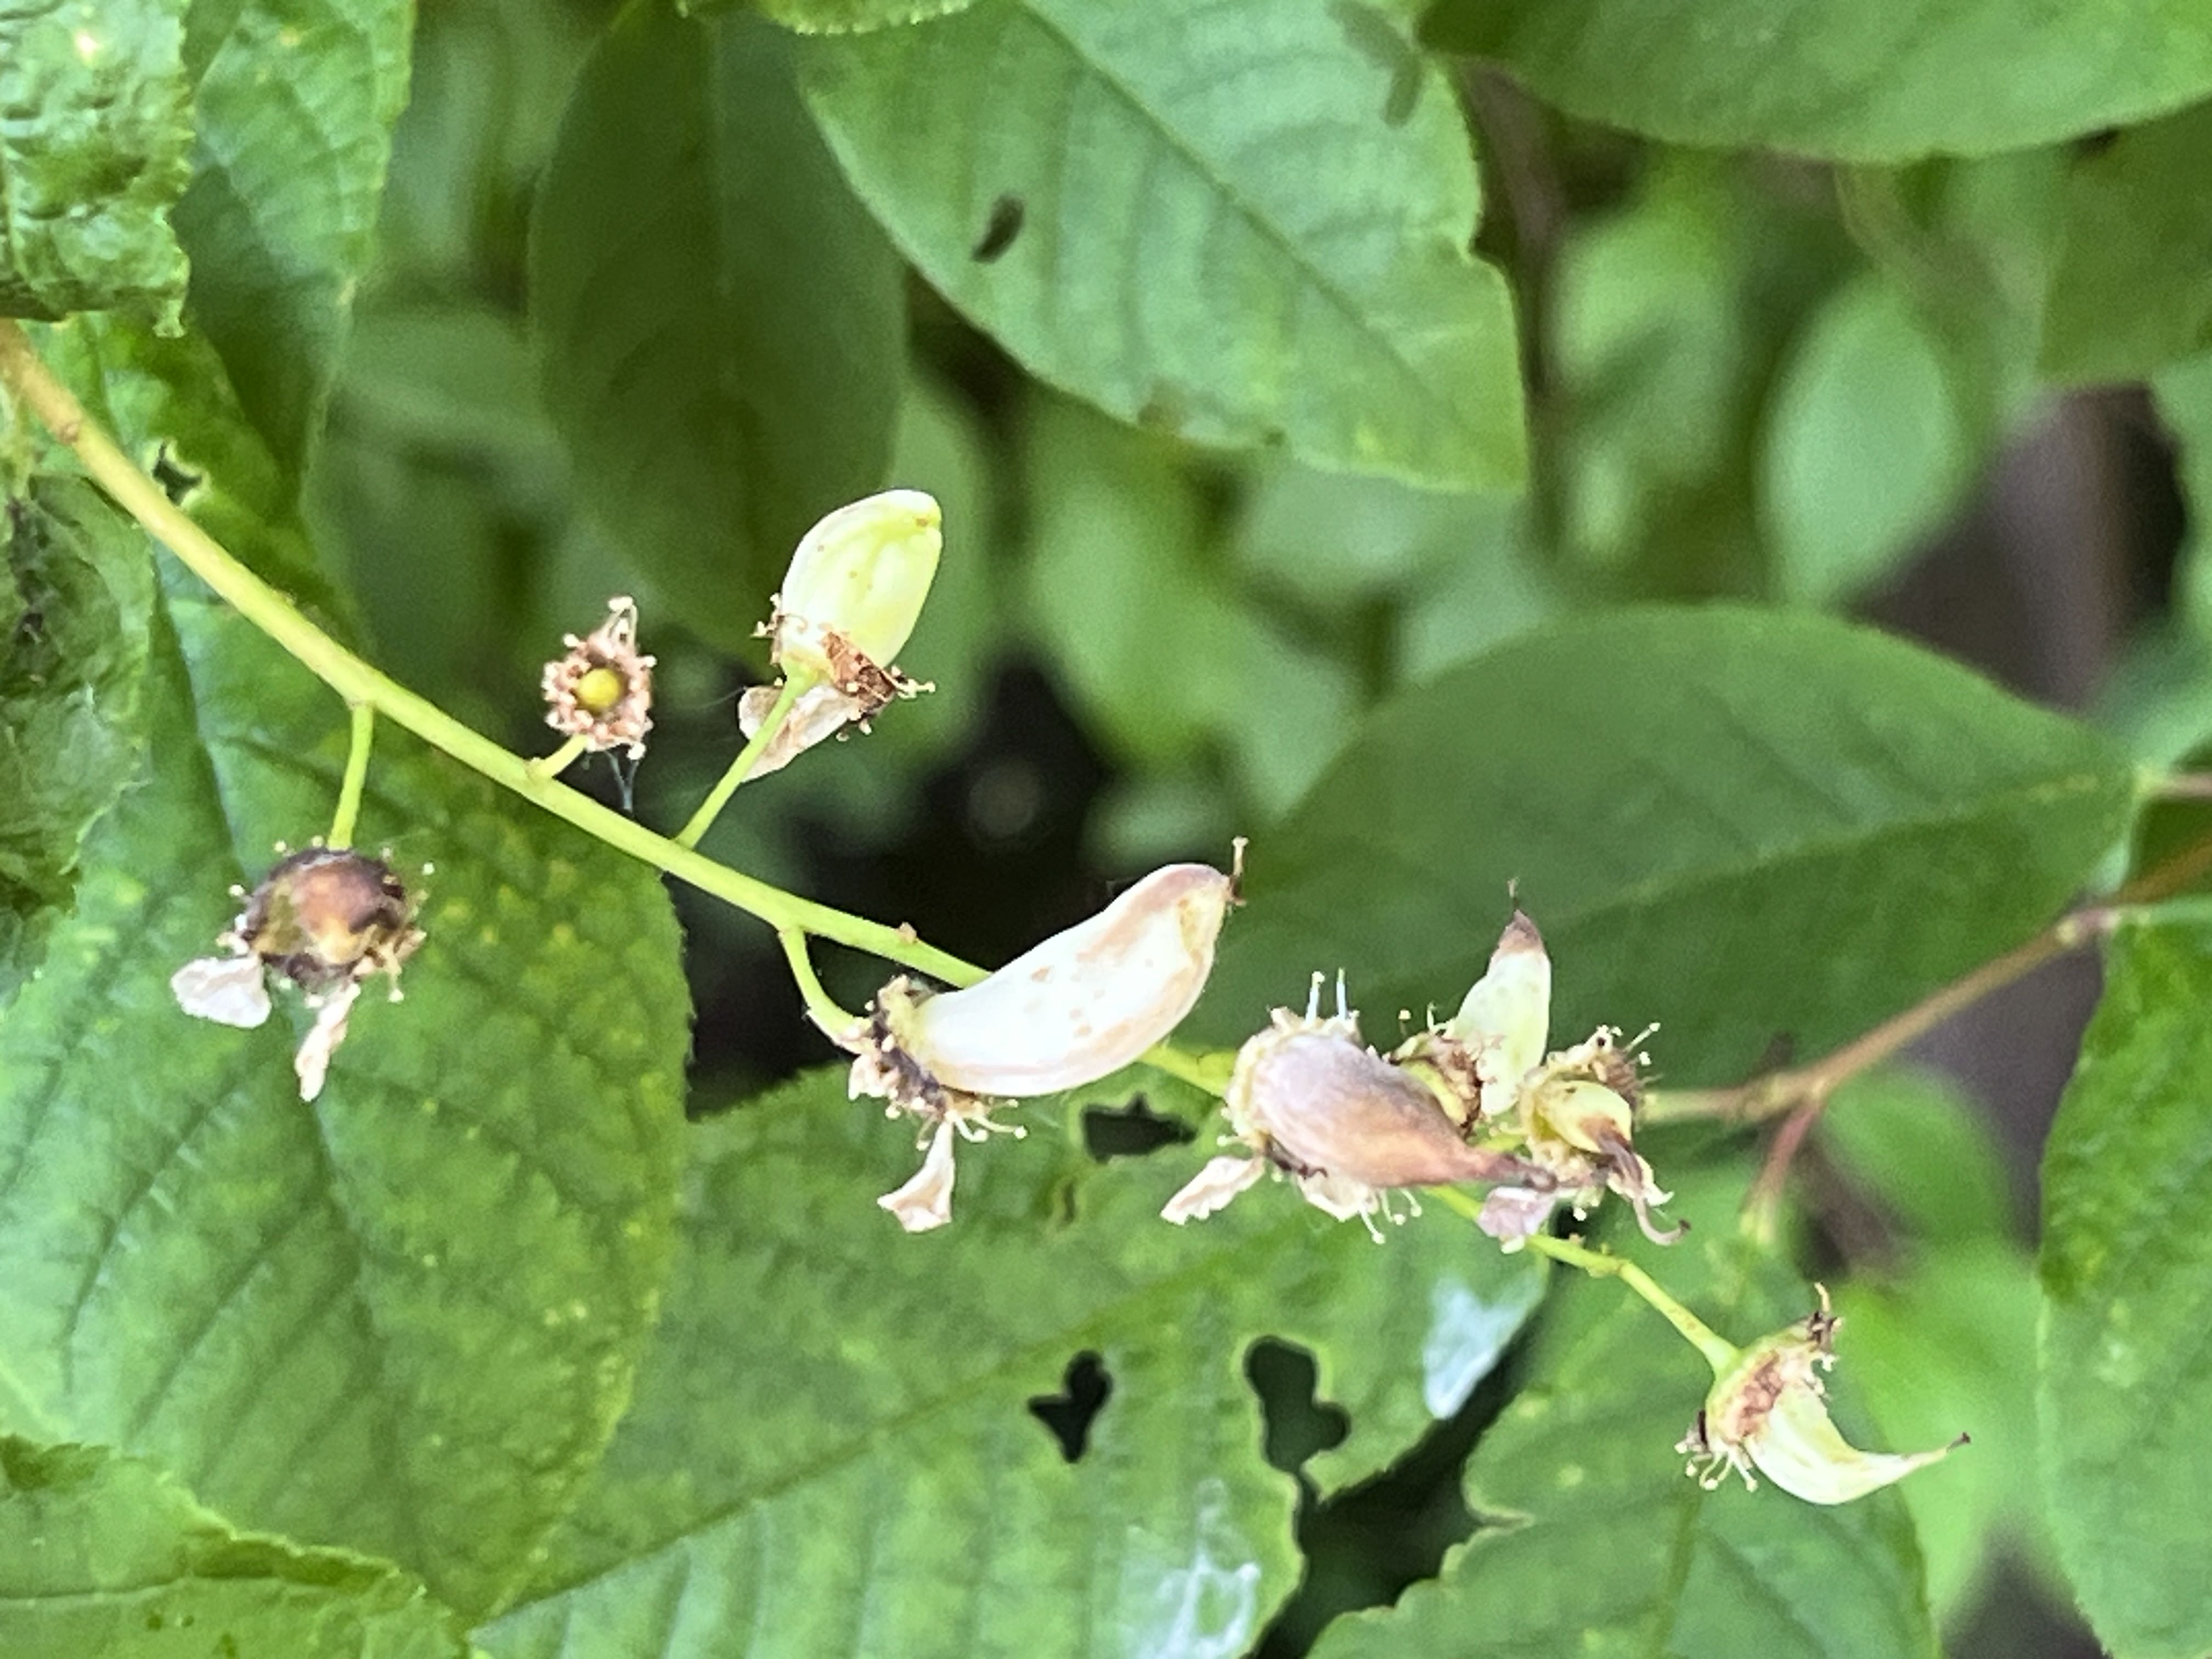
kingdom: Fungi
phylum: Ascomycota
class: Taphrinomycetes
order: Taphrinales
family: Taphrinaceae
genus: Taphrina
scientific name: Taphrina padi
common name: Bird cherry pocket
